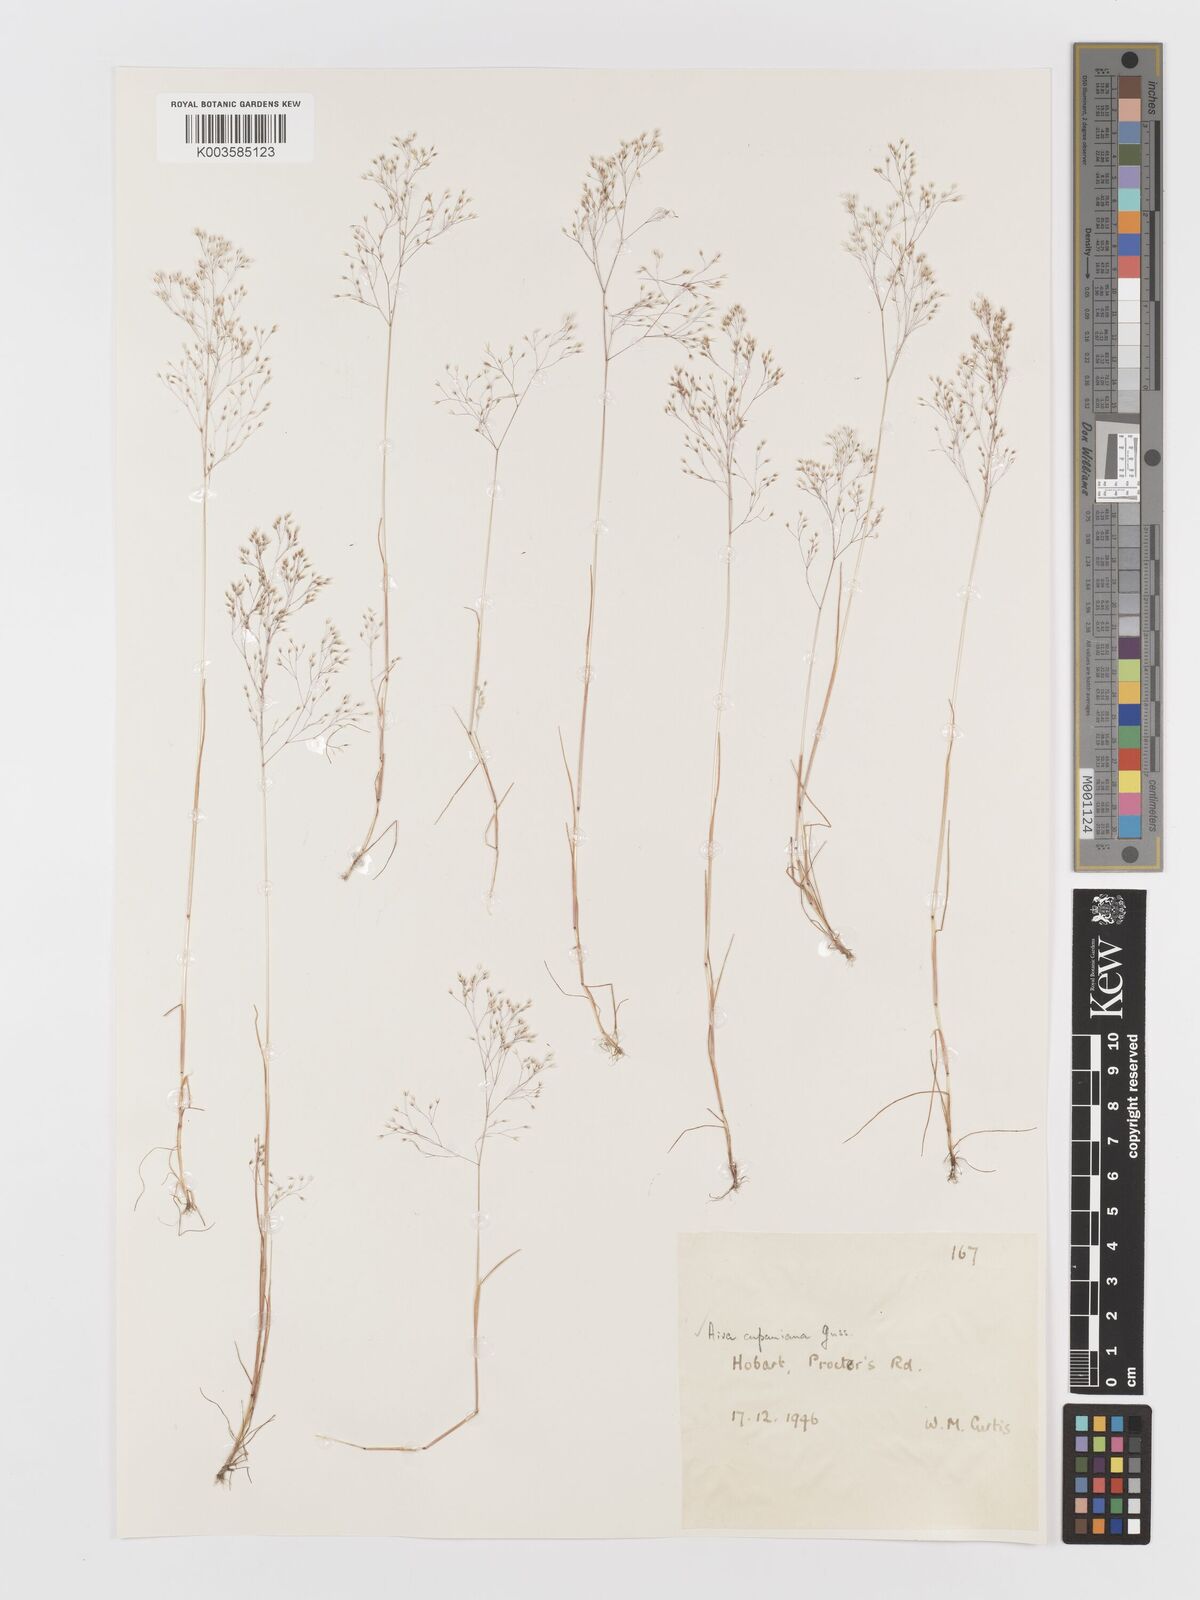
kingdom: Plantae
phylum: Tracheophyta
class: Liliopsida
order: Poales
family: Poaceae
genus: Aira
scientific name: Aira cupaniana
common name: Silver hairgrass
